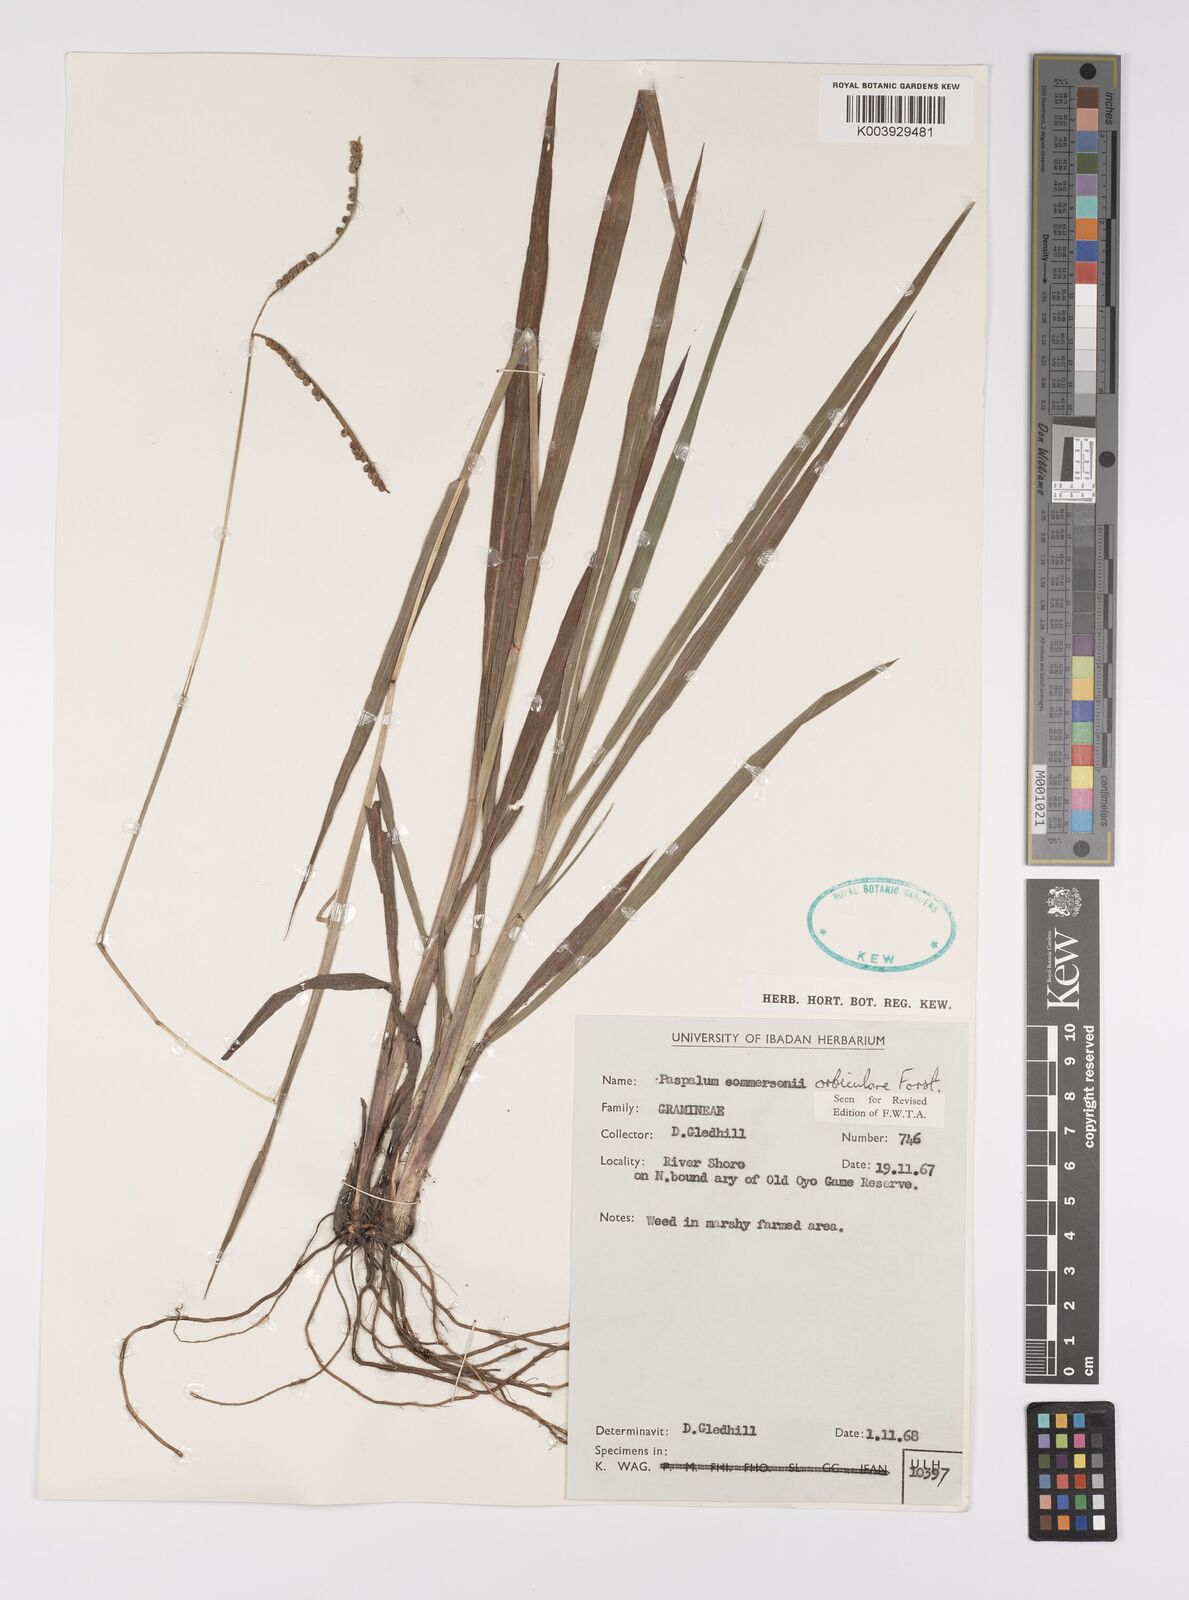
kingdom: Plantae
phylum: Tracheophyta
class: Liliopsida
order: Poales
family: Poaceae
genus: Paspalum
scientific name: Paspalum scrobiculatum
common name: Kodo millet
